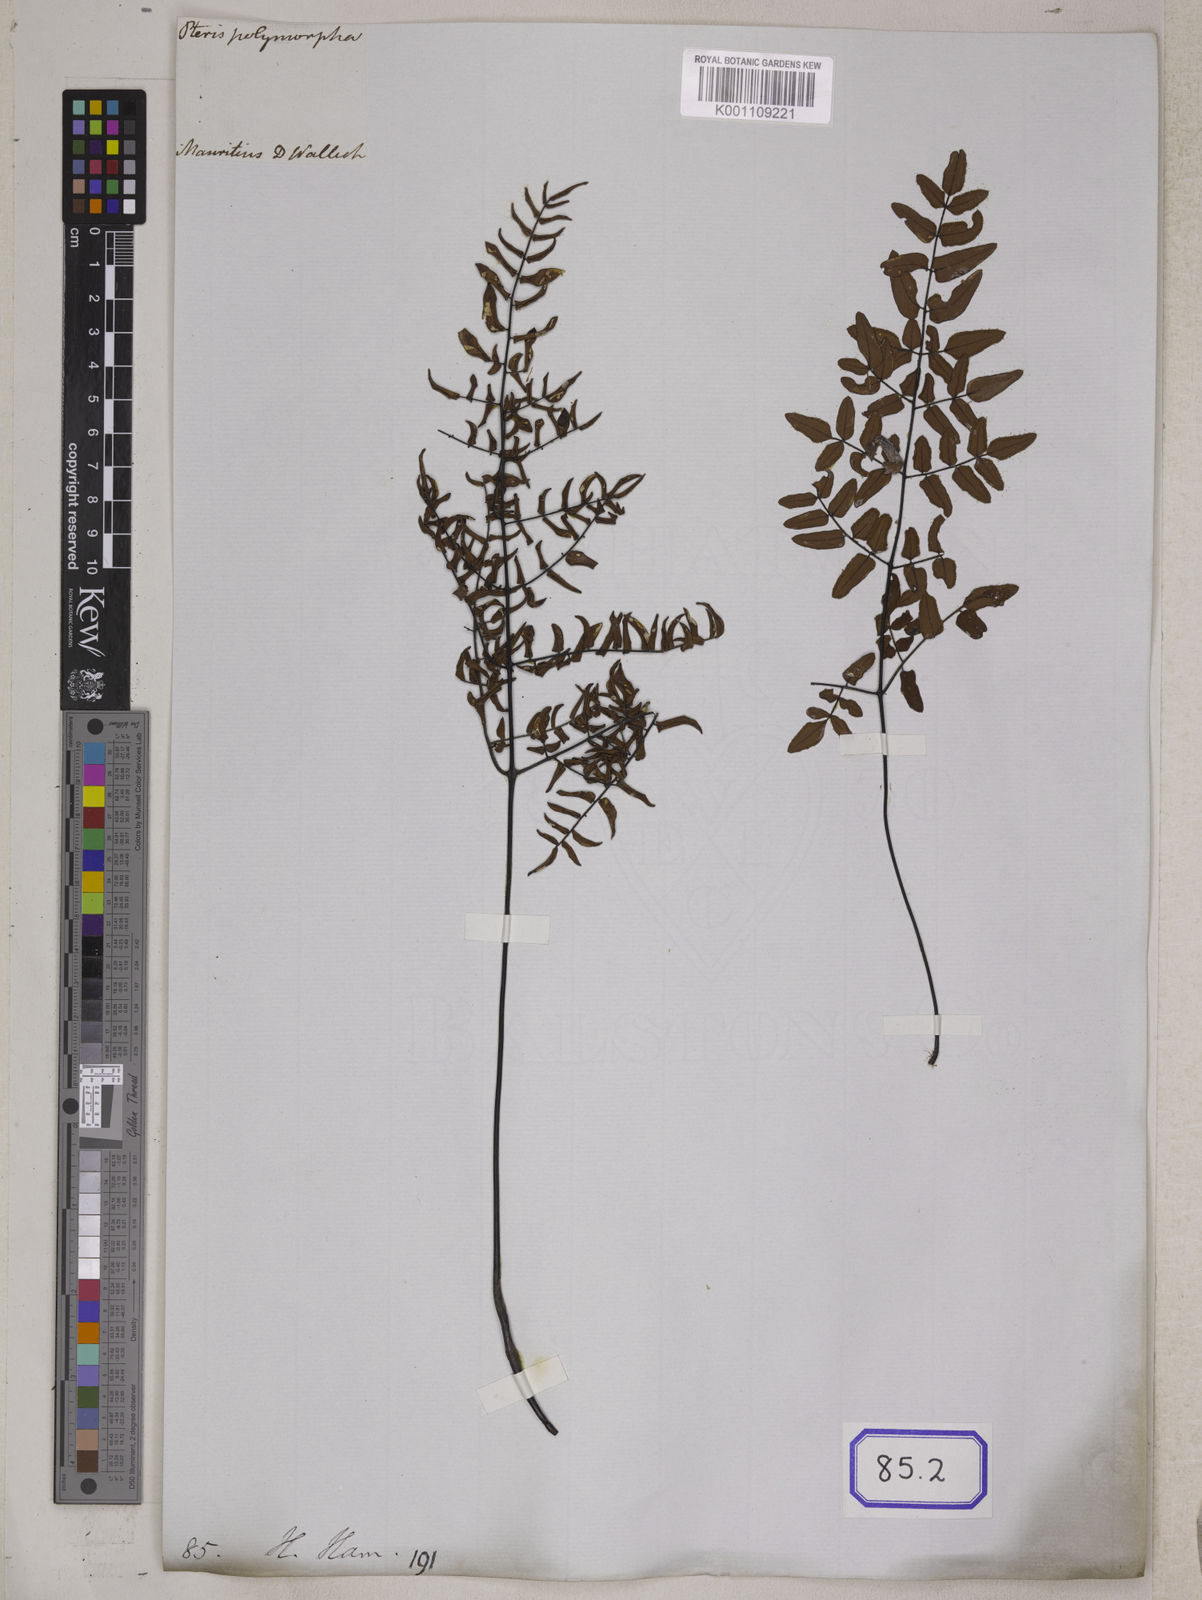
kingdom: Plantae
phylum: Tracheophyta
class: Polypodiopsida
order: Polypodiales
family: Pteridaceae
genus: Cheilanthes
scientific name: Cheilanthes viridis
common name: Green cliffbrake
